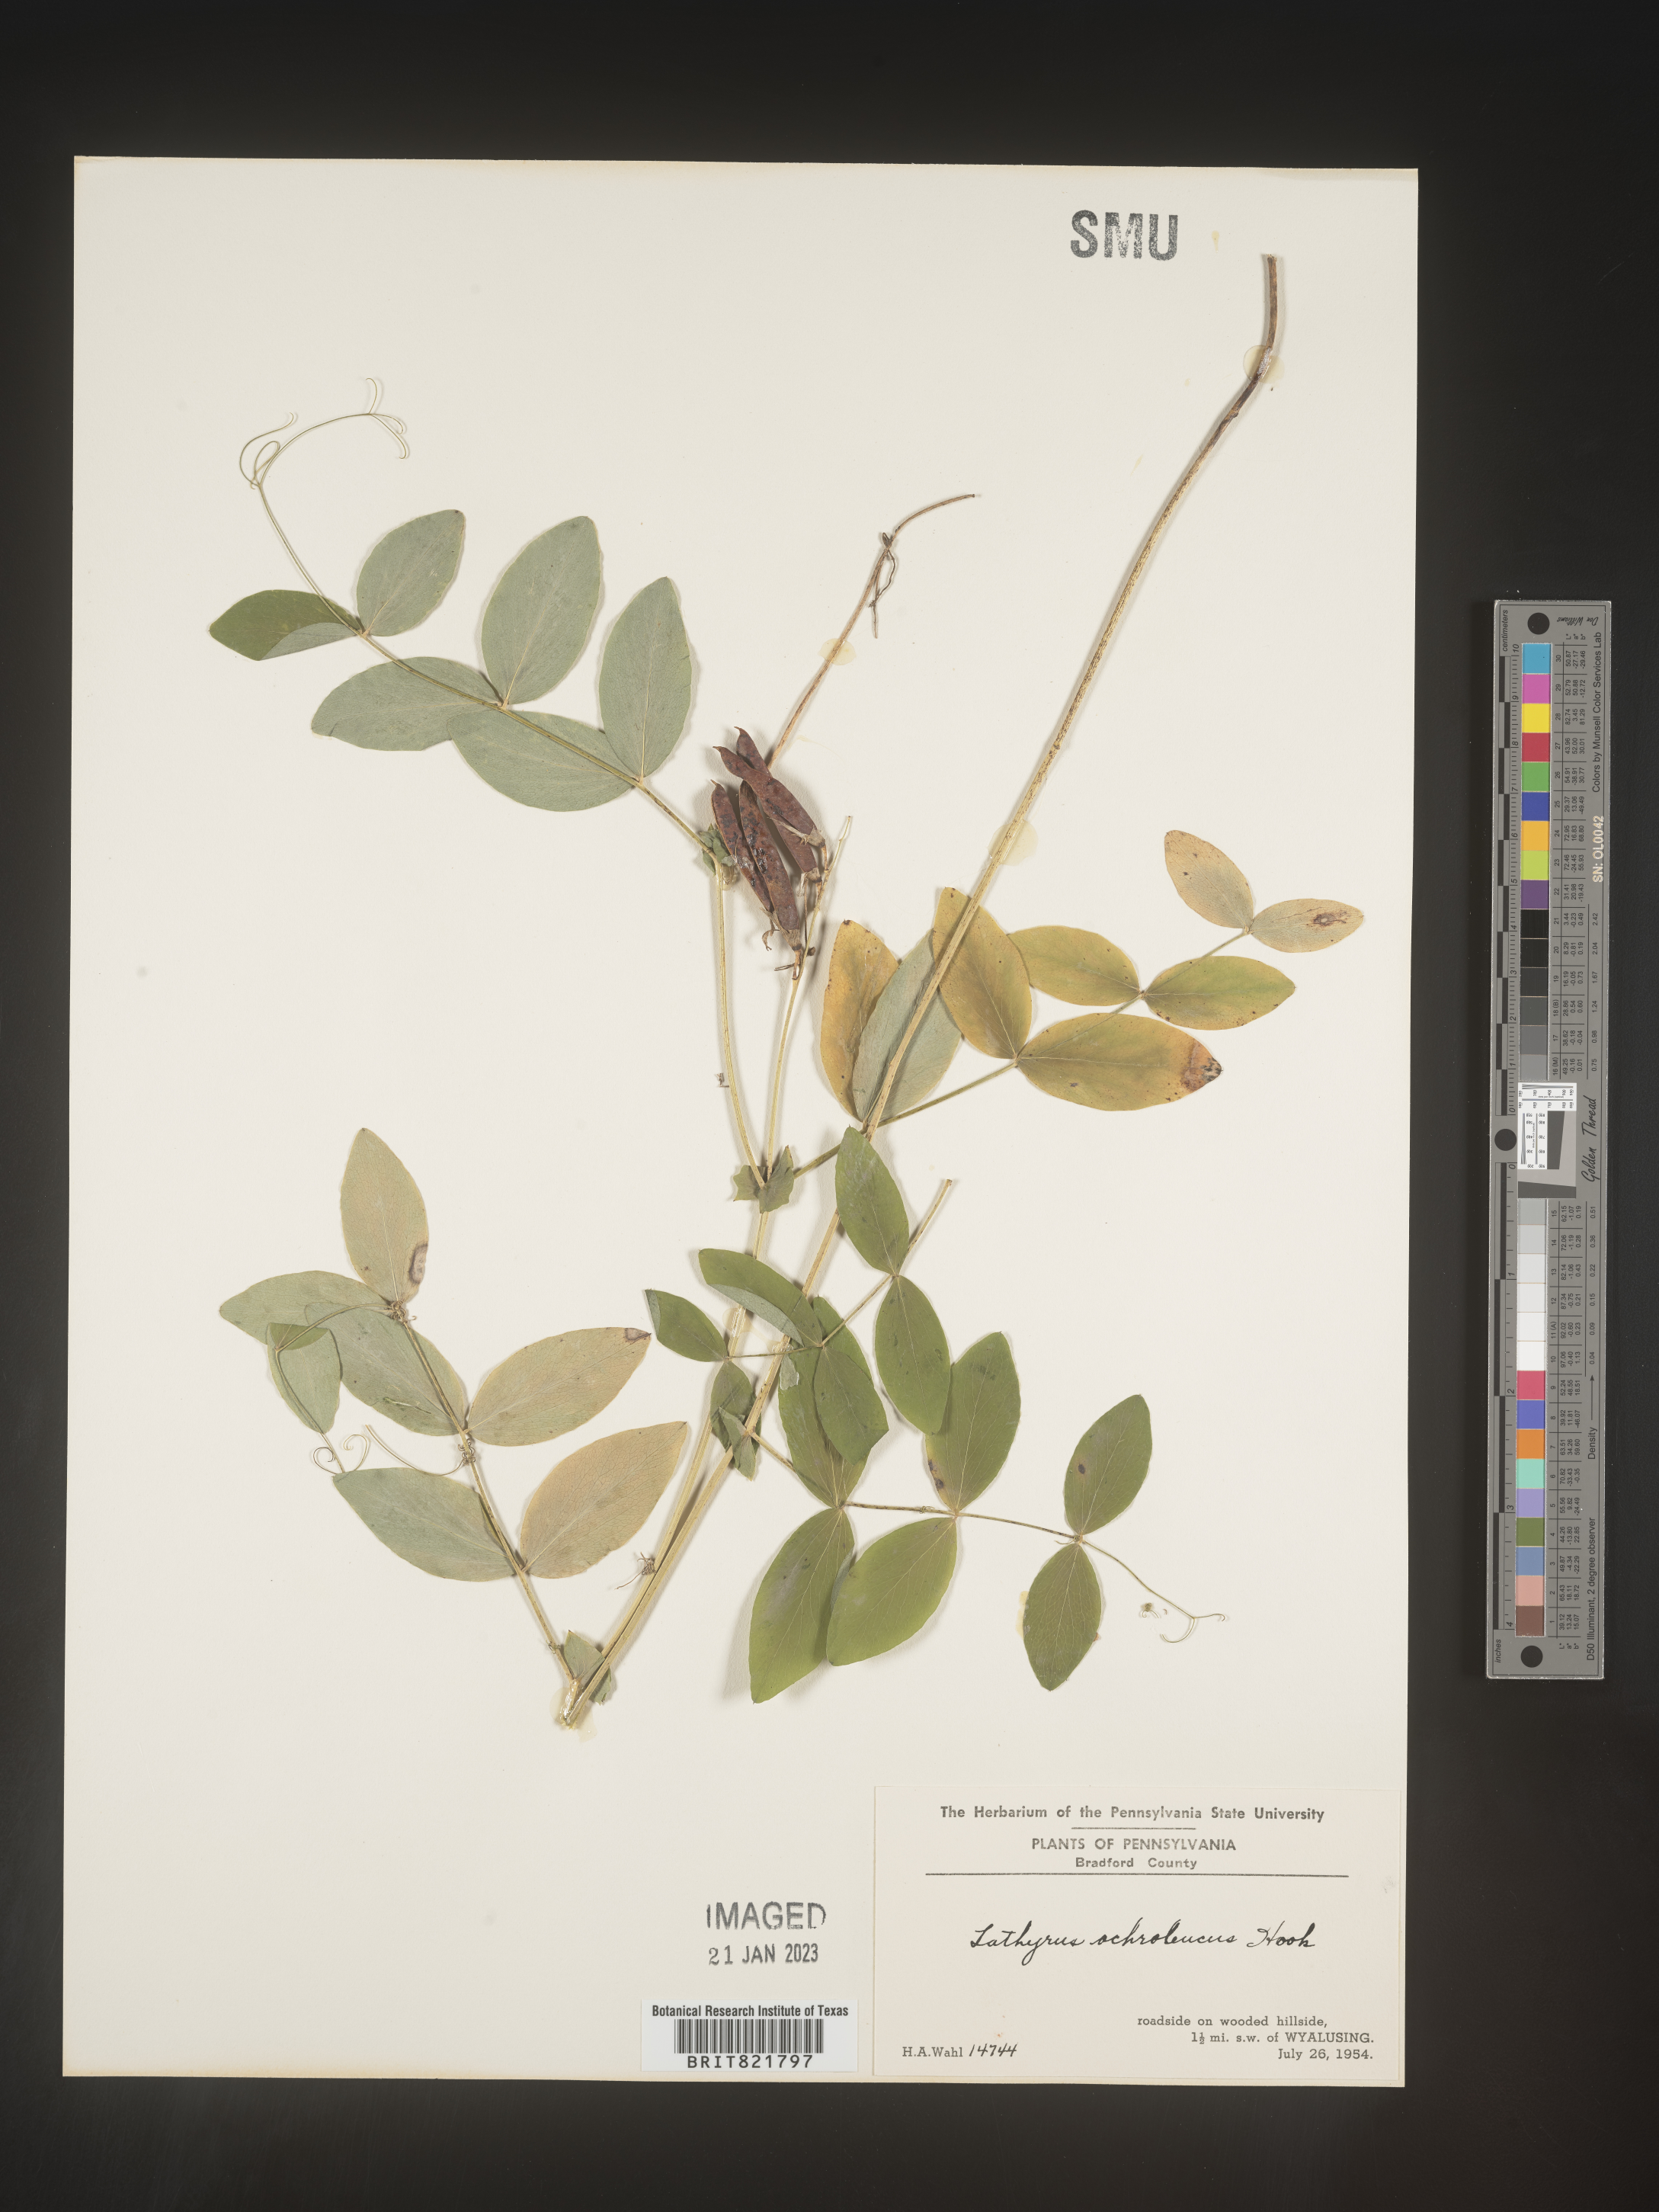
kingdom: Plantae
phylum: Tracheophyta
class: Magnoliopsida
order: Fabales
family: Fabaceae
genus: Lathyrus
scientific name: Lathyrus
